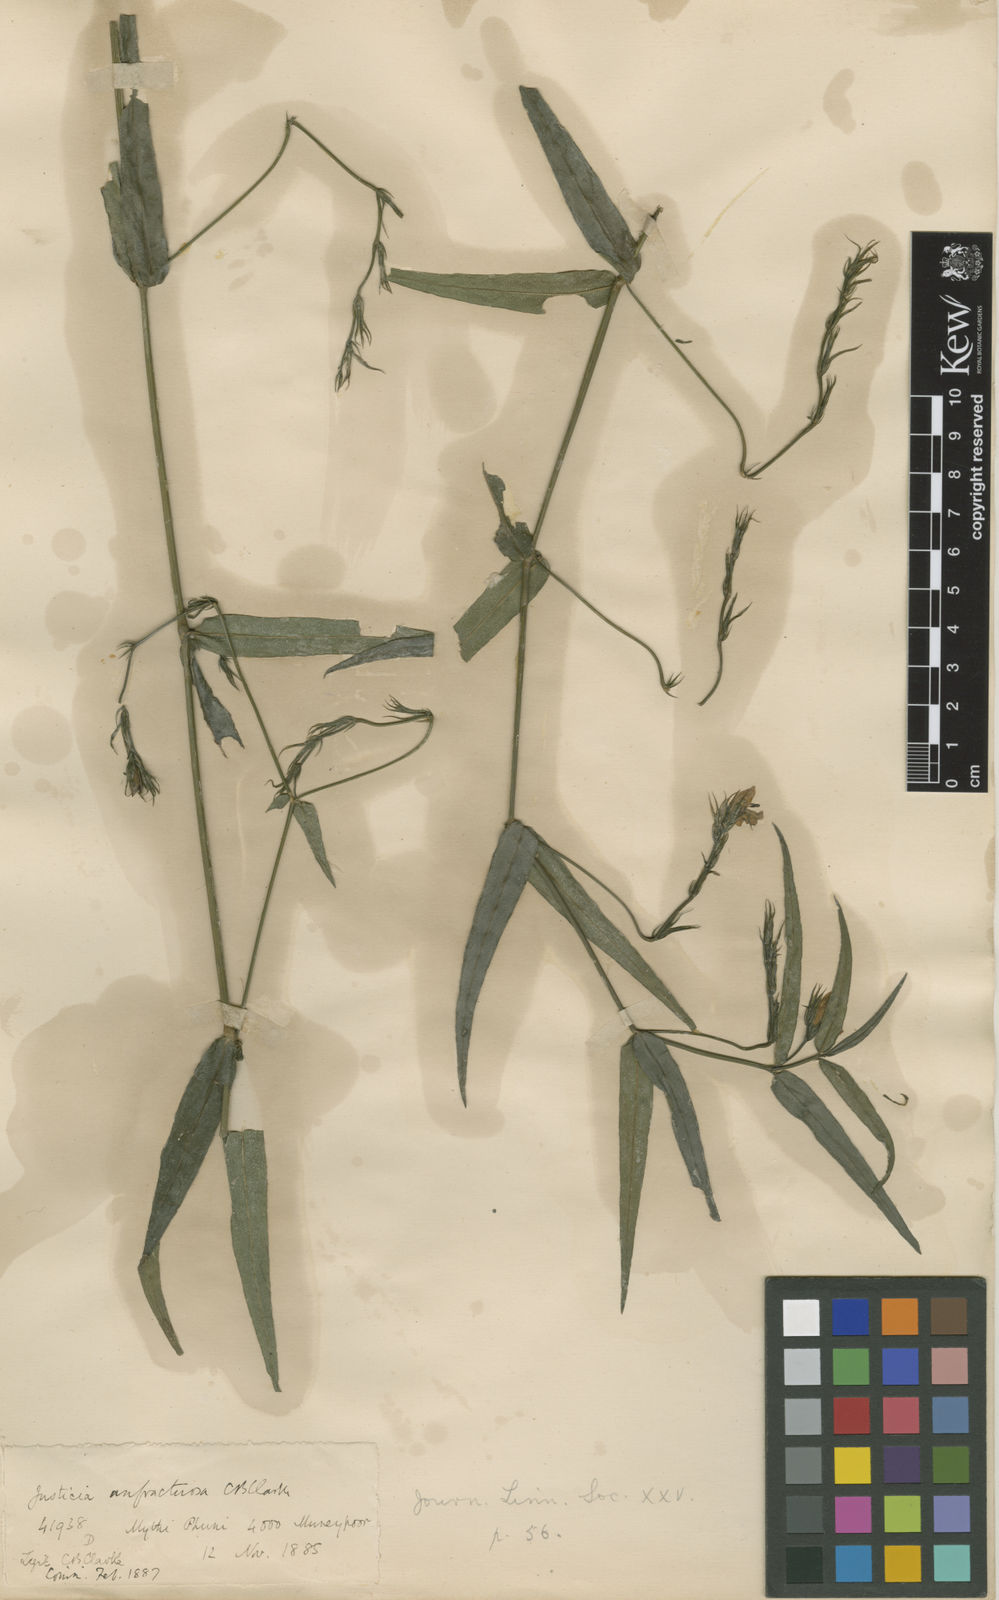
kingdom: Plantae
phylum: Tracheophyta
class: Magnoliopsida
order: Lamiales
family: Acanthaceae
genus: Justicia
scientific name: Justicia anfractuosa
